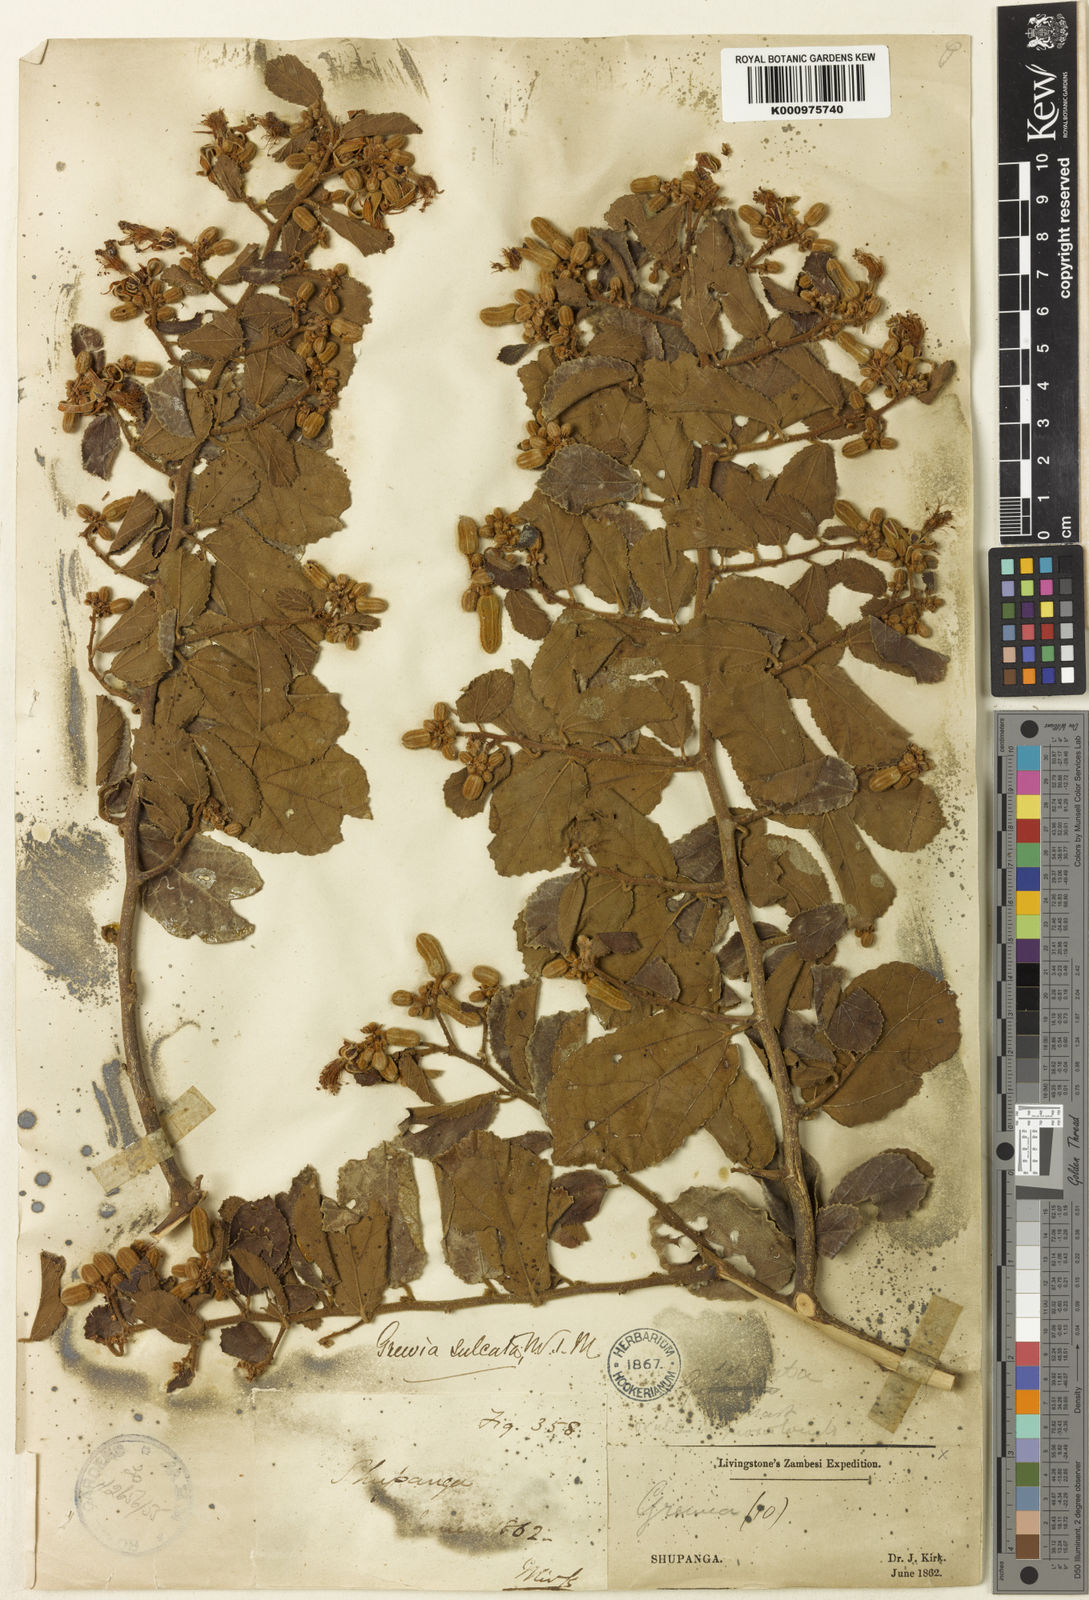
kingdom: Plantae
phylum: Tracheophyta
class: Magnoliopsida
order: Malvales
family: Malvaceae
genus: Grewia
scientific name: Grewia sulcata
